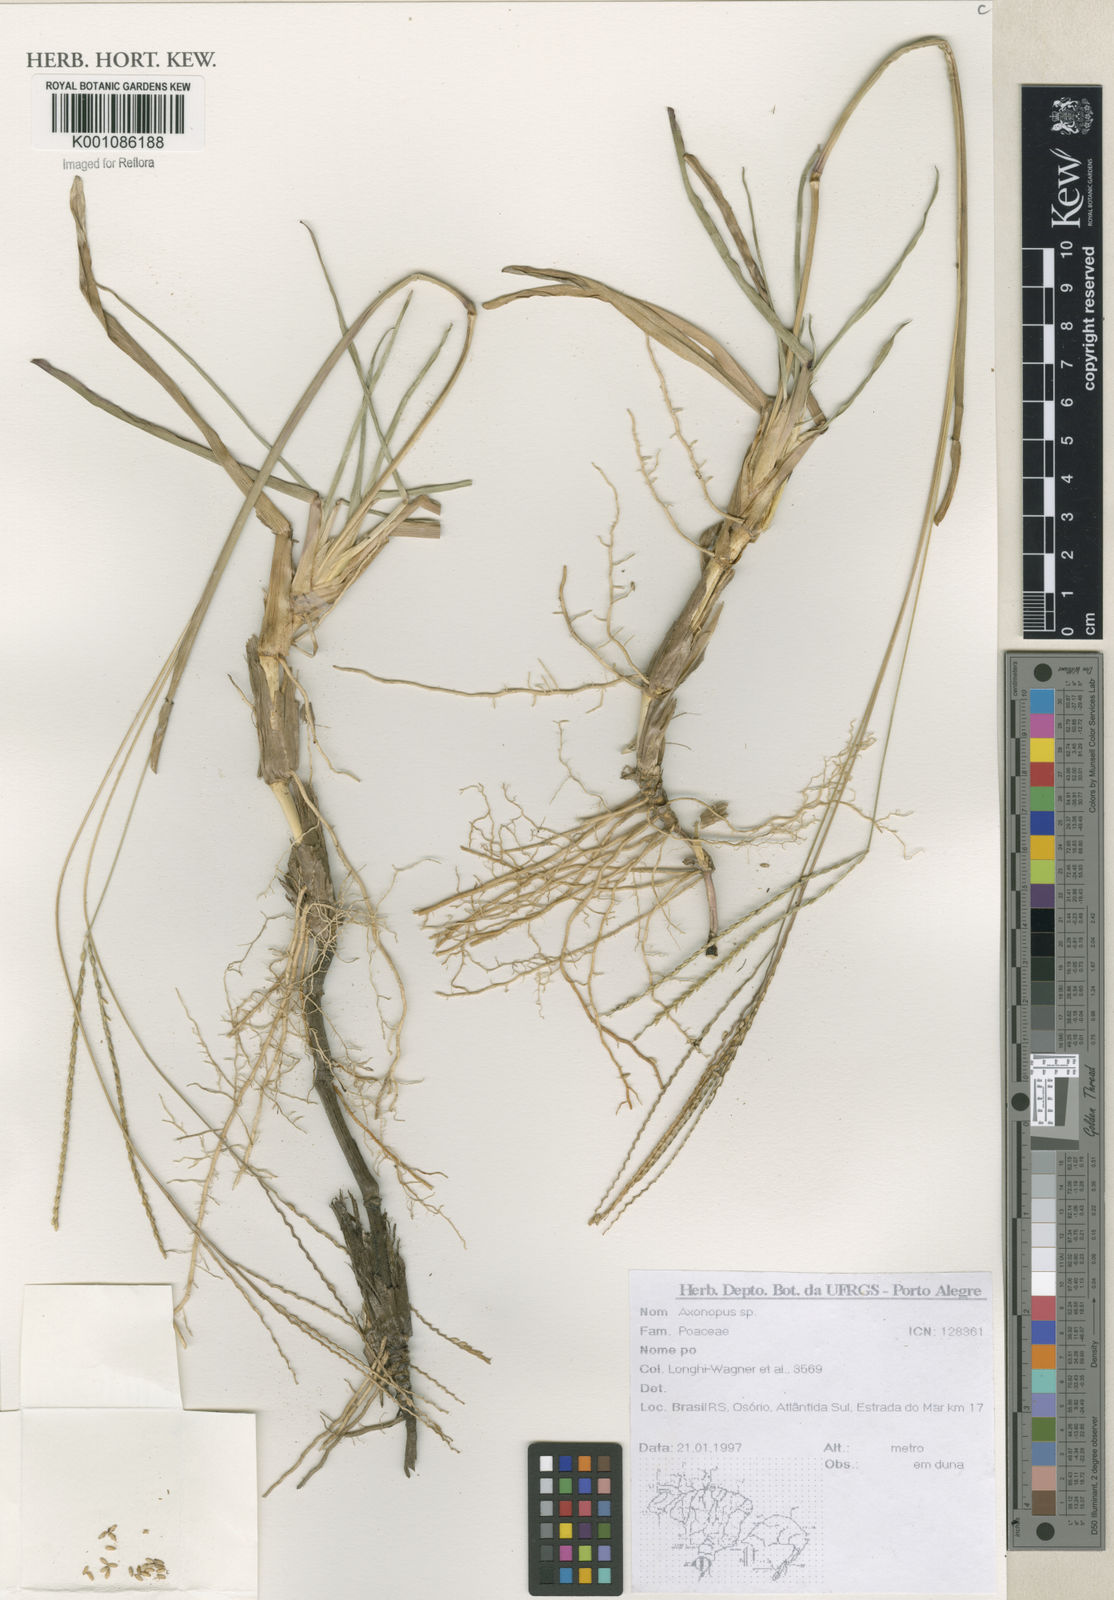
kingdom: Plantae
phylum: Tracheophyta
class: Liliopsida
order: Poales
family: Poaceae
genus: Axonopus
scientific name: Axonopus
